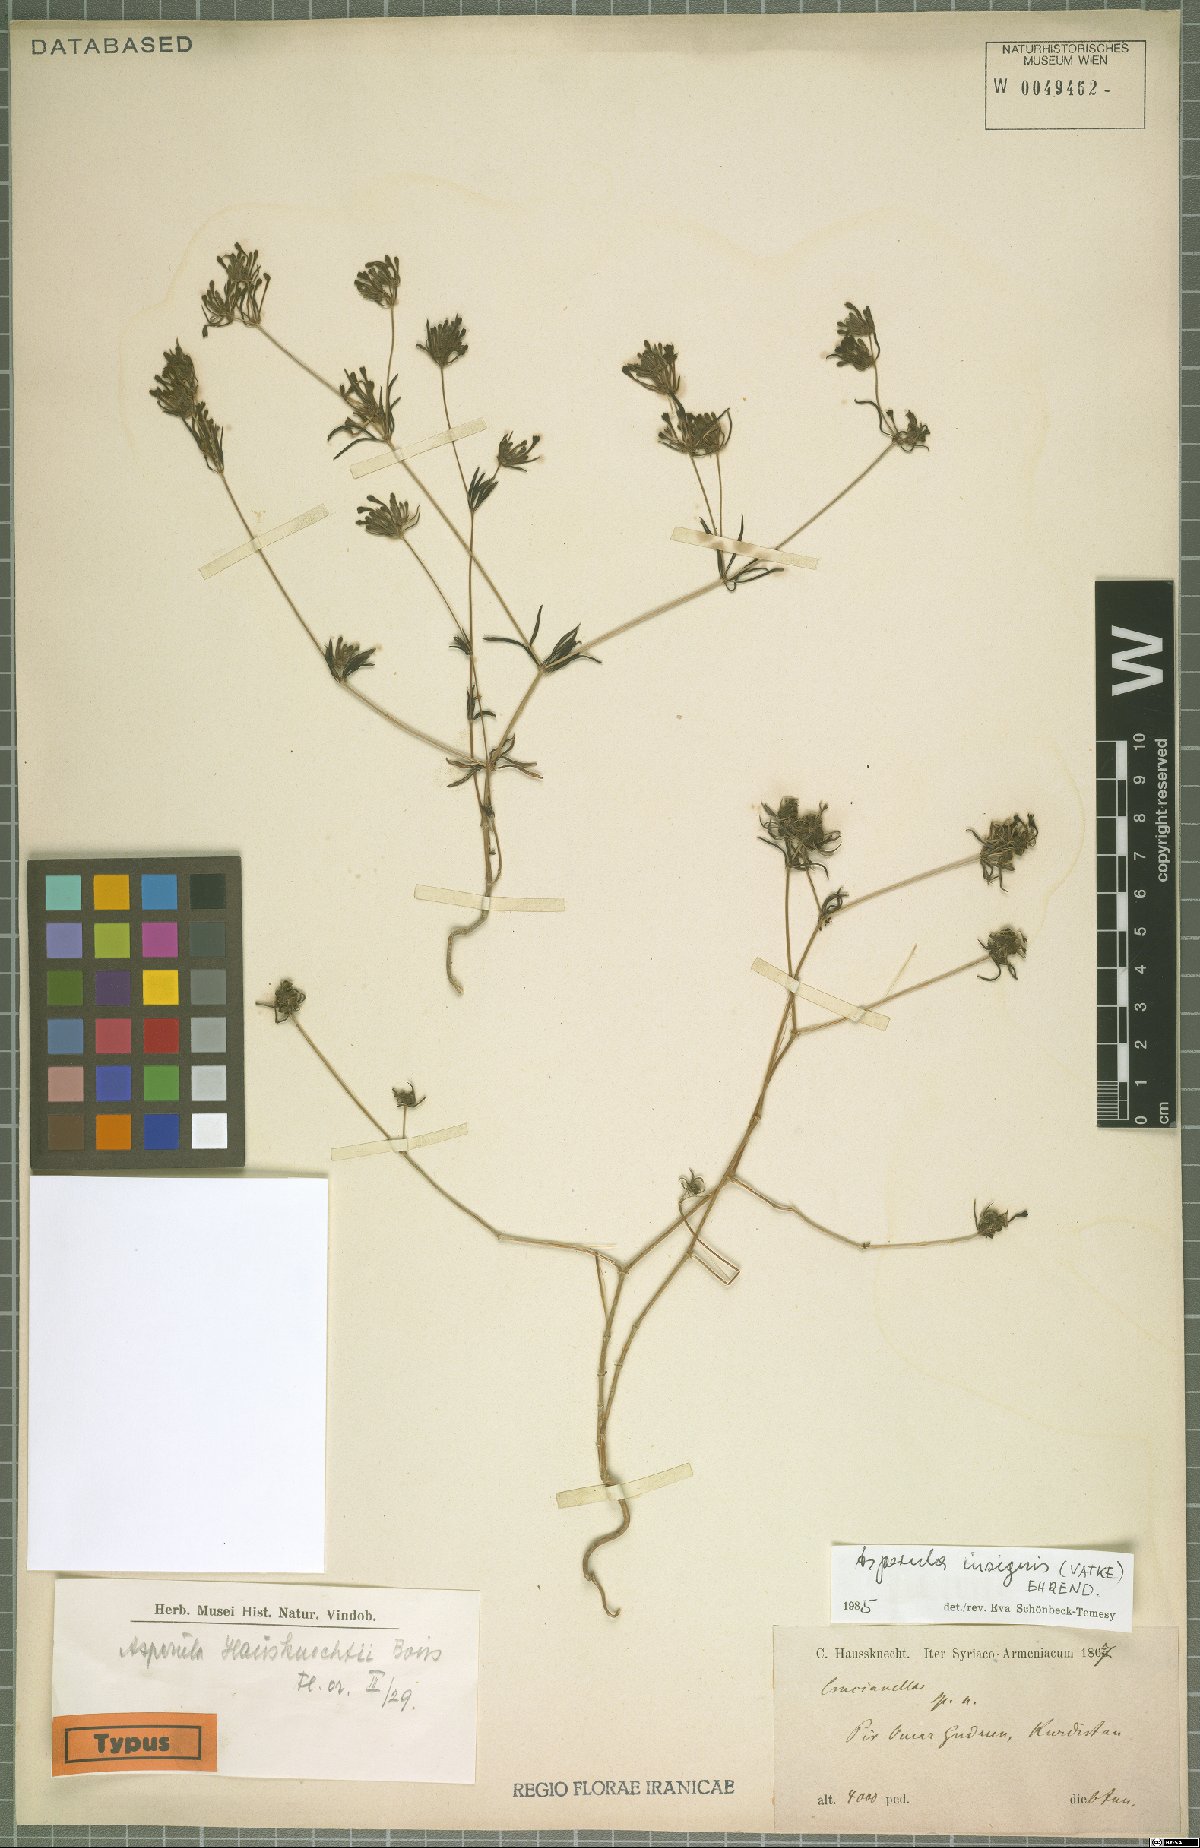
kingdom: Plantae
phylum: Tracheophyta
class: Magnoliopsida
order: Gentianales
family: Rubiaceae
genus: Asperula
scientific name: Asperula insignis
